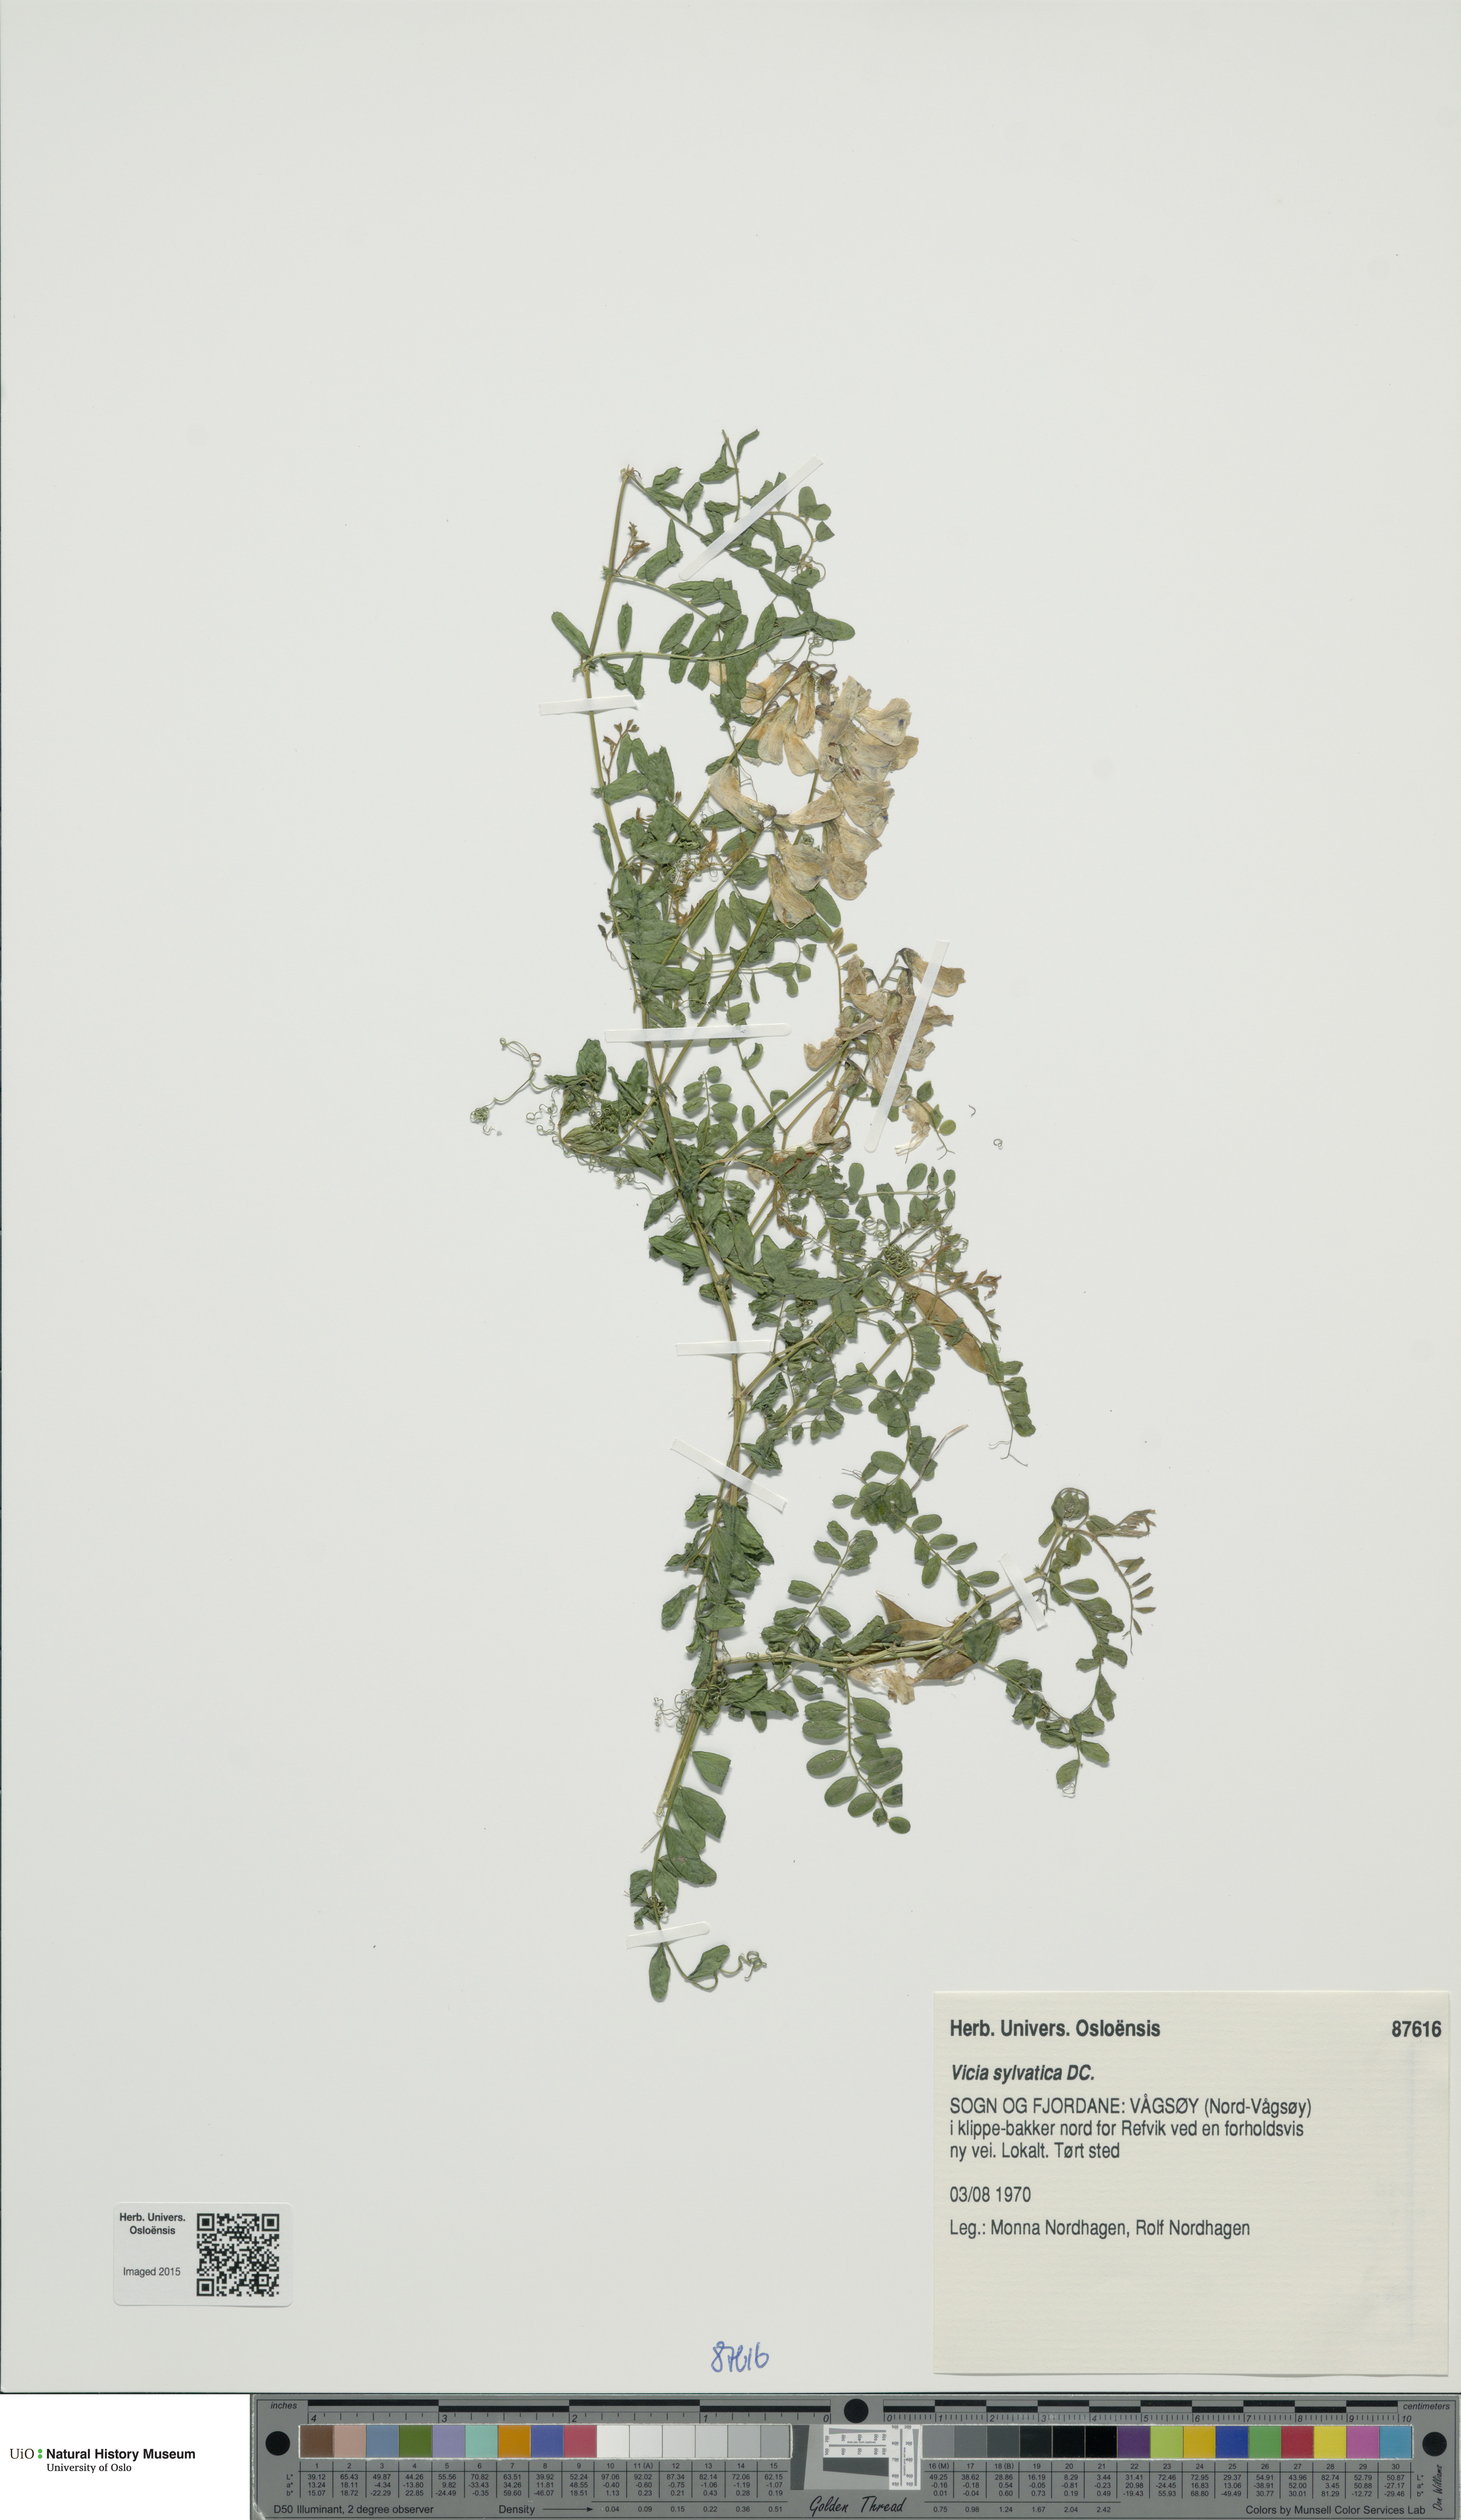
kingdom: Plantae
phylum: Tracheophyta
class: Magnoliopsida
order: Fabales
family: Fabaceae
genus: Vicia
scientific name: Vicia sylvatica
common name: Wood vetch
